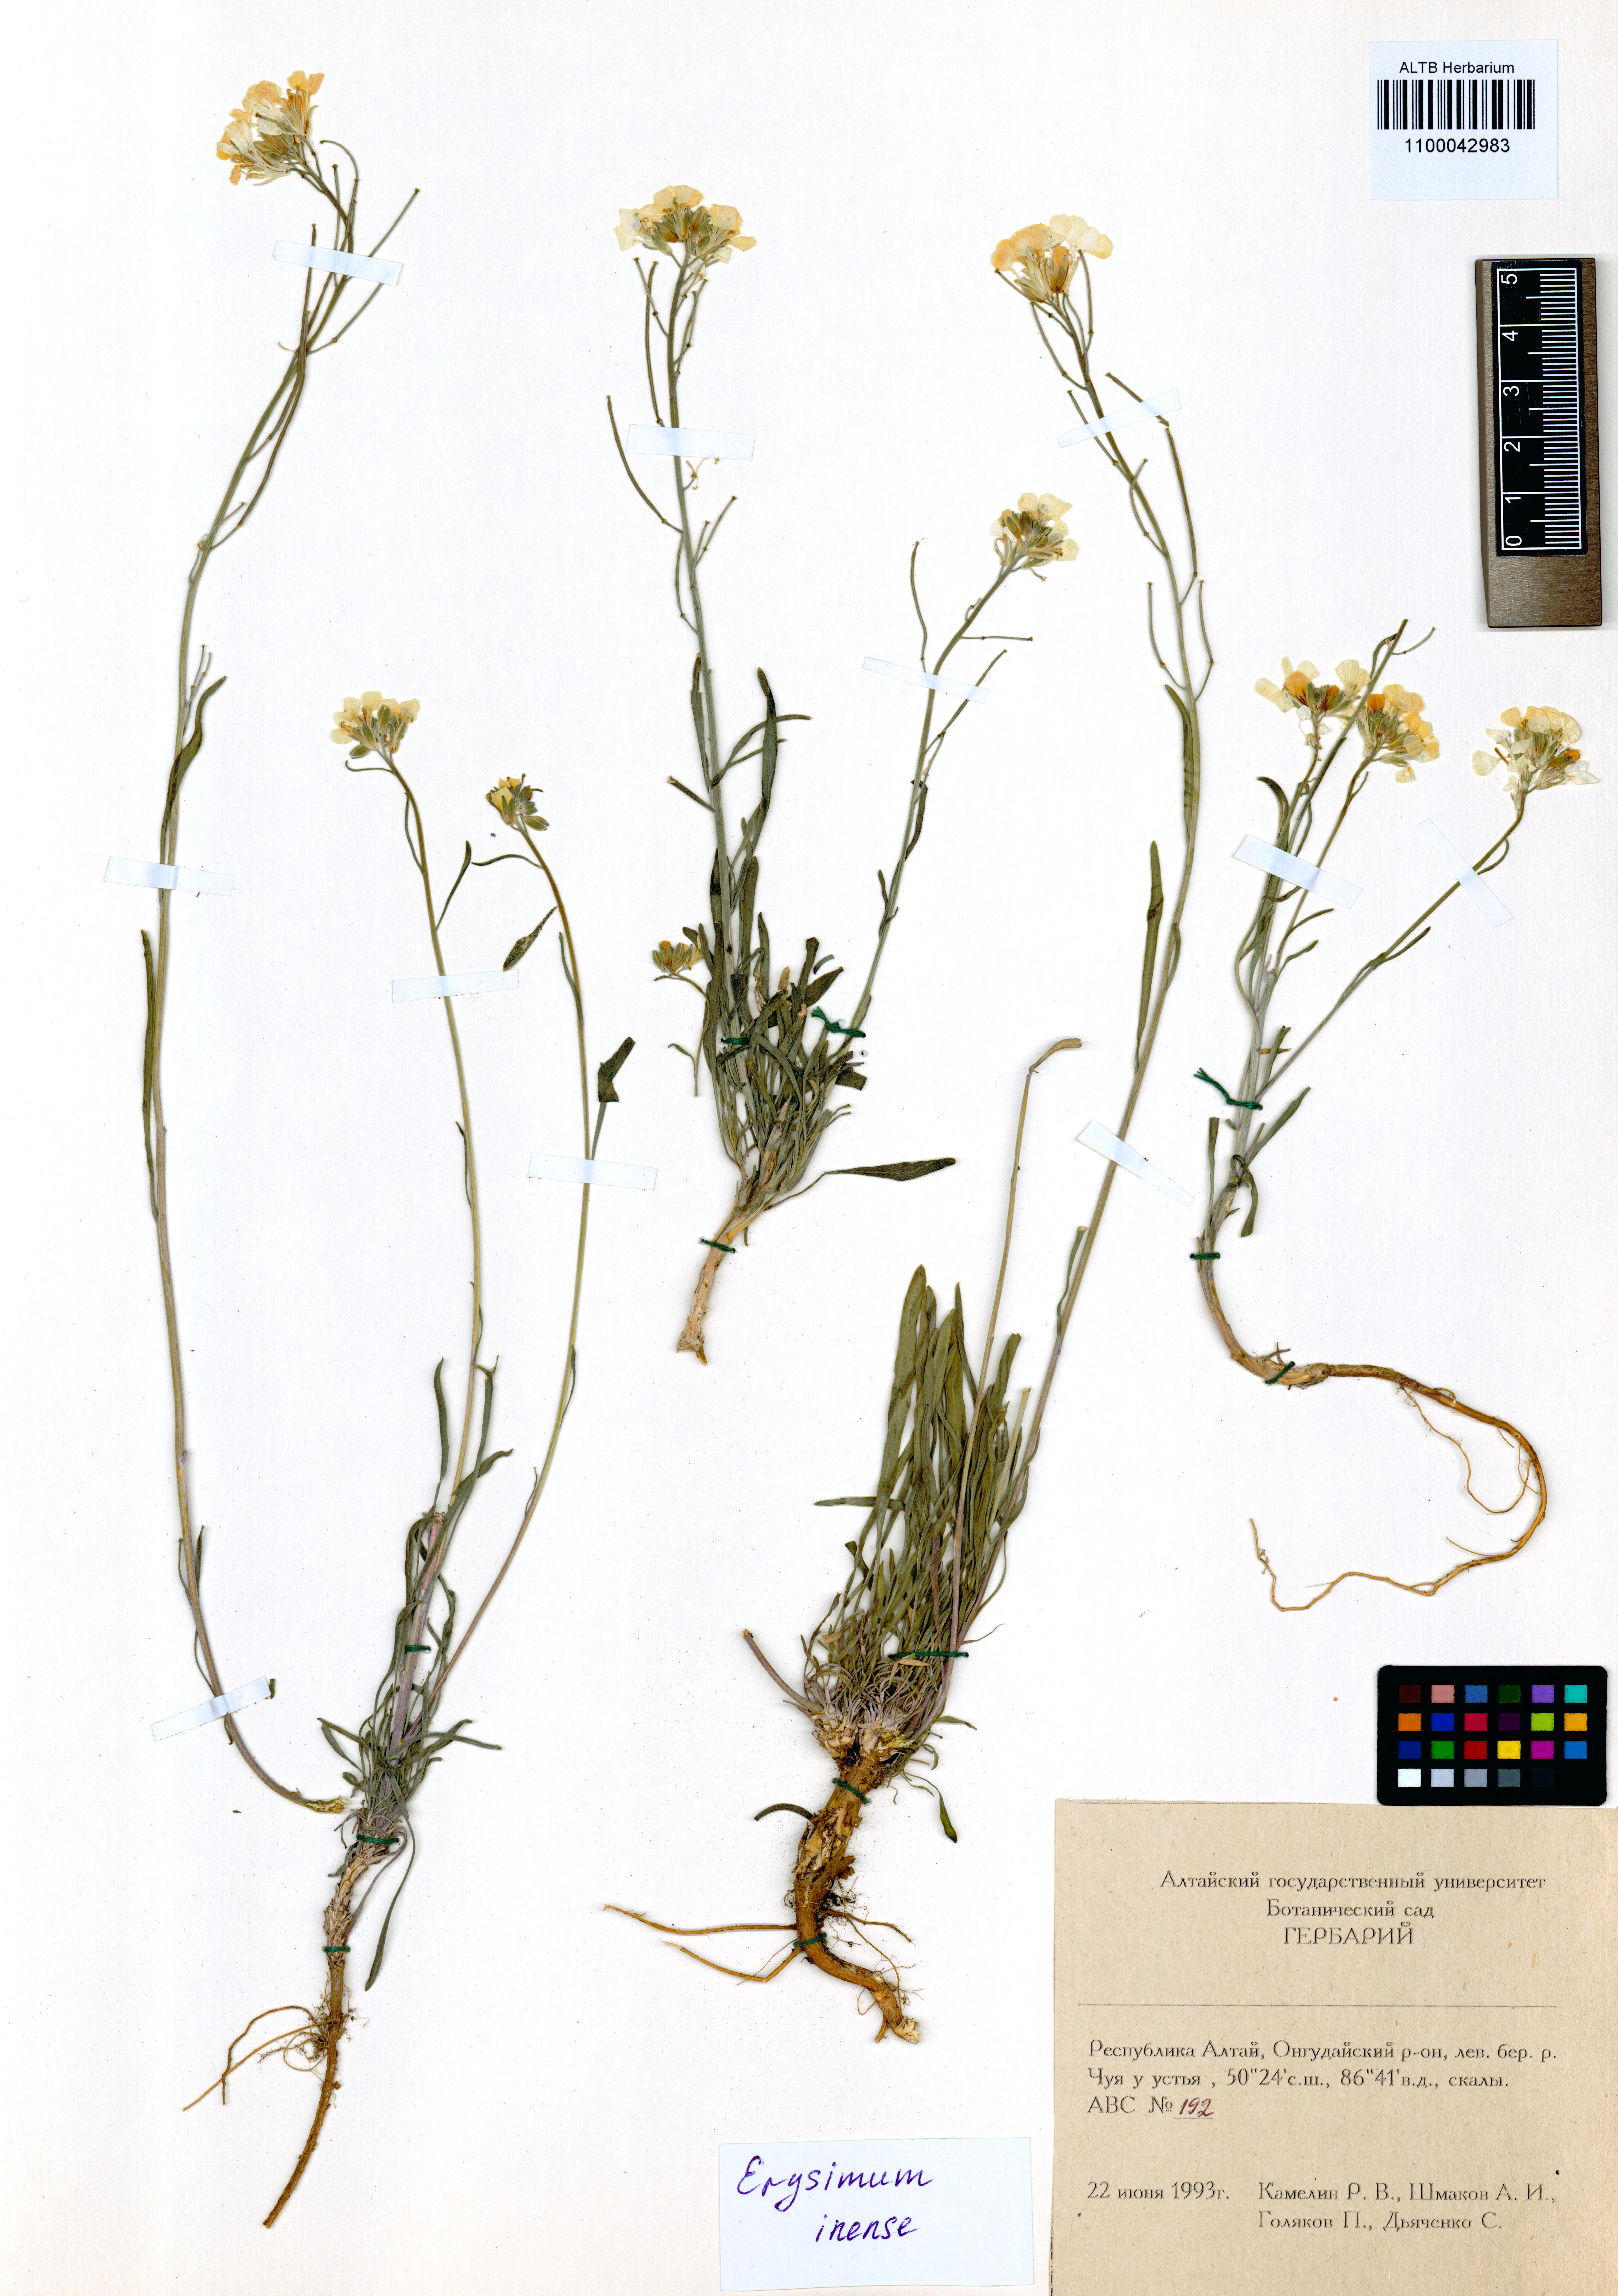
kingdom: Plantae
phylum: Tracheophyta
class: Magnoliopsida
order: Brassicales
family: Brassicaceae
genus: Erysimum
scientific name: Erysimum inense
